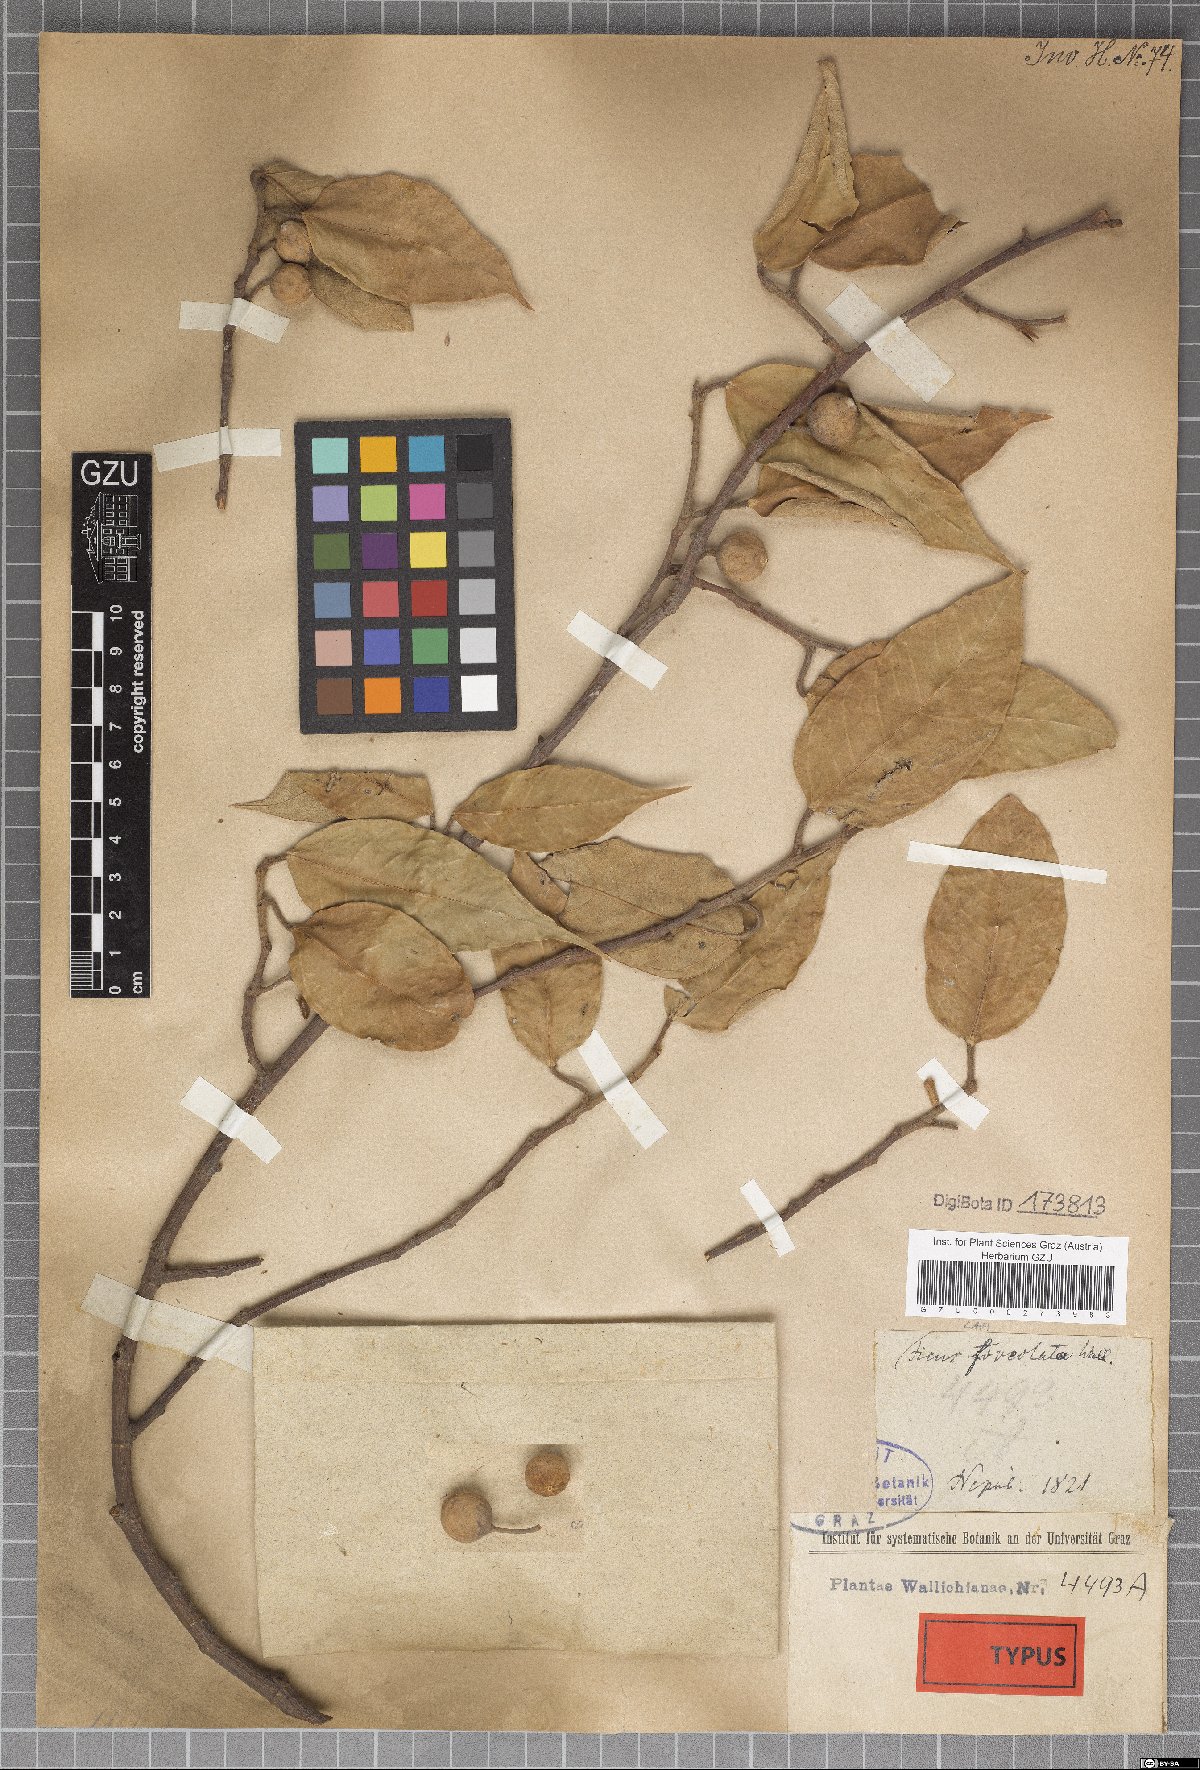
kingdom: Plantae
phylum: Tracheophyta
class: Magnoliopsida
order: Rosales
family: Moraceae
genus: Ficus
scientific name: Ficus sarmentosa
